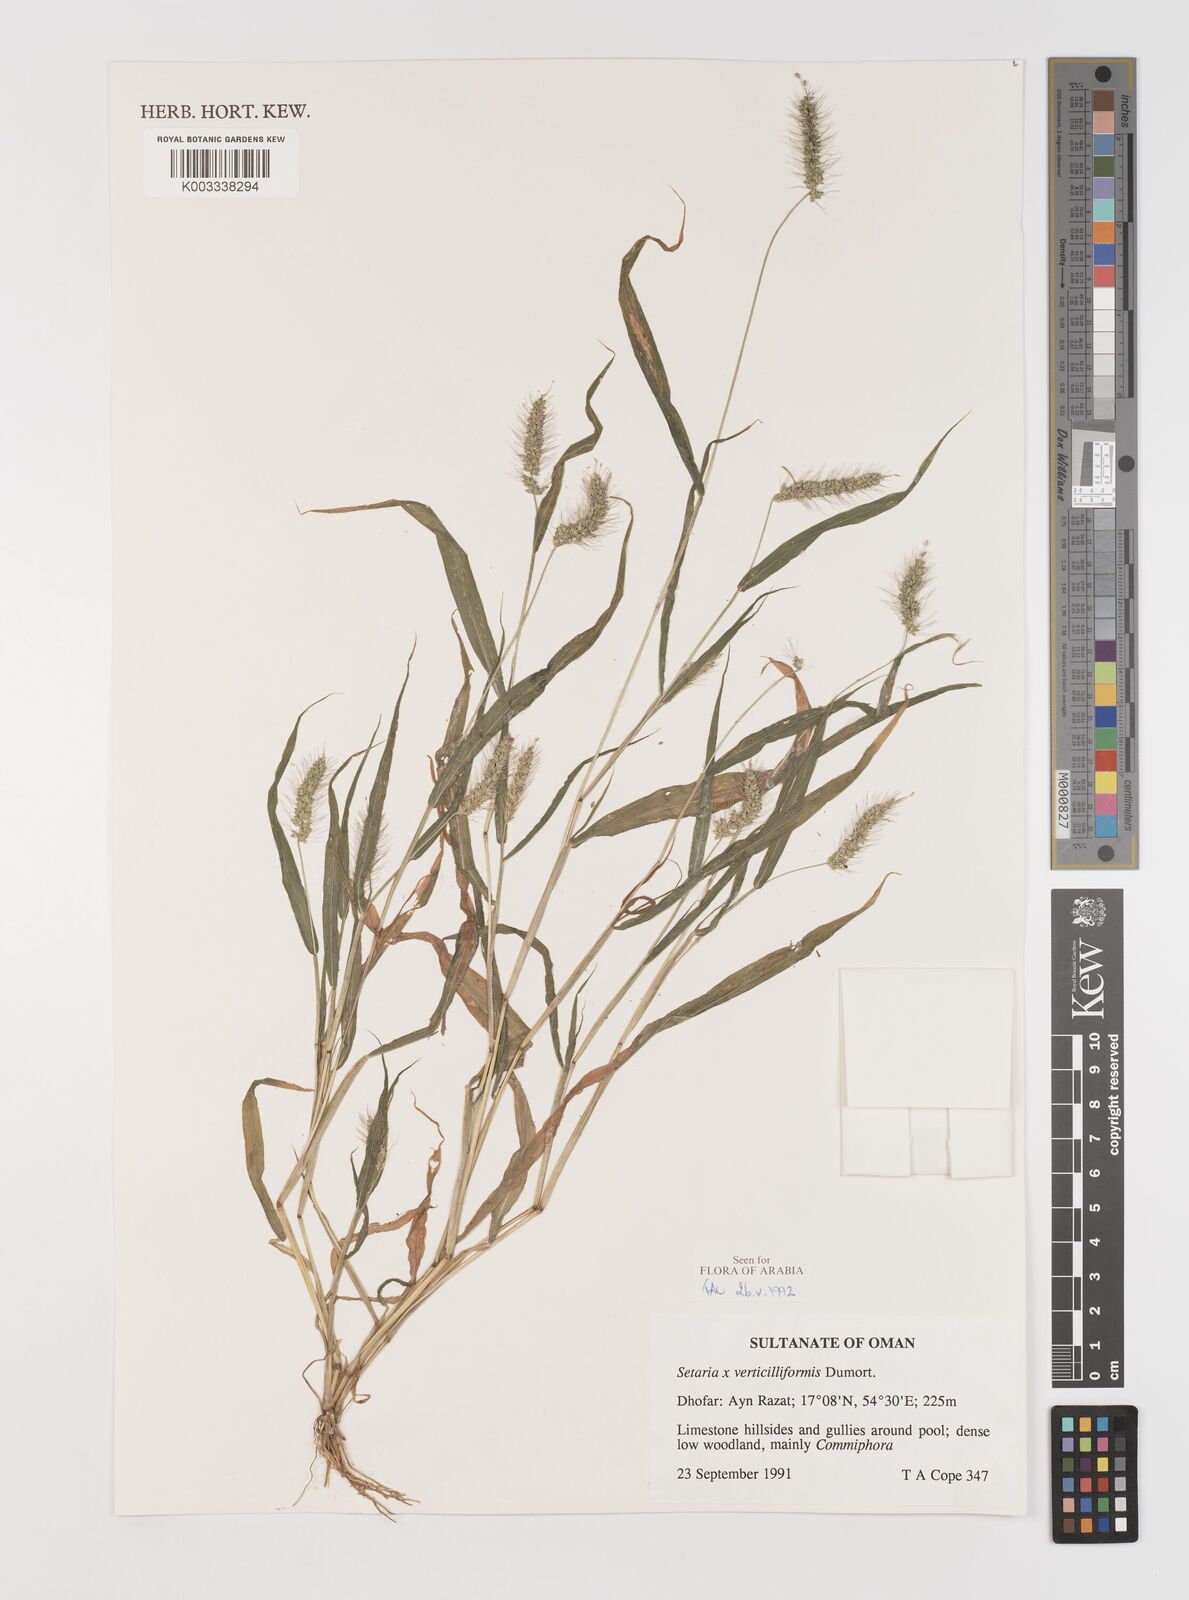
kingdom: Plantae
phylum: Tracheophyta
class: Liliopsida
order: Poales
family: Poaceae
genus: Setaria
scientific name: Setaria verticillata
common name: Hooked bristlegrass
